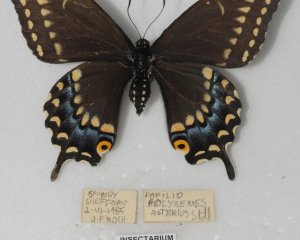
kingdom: Animalia
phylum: Arthropoda
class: Insecta
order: Lepidoptera
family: Papilionidae
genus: Papilio
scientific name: Papilio polyxenes
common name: Black Swallowtail
